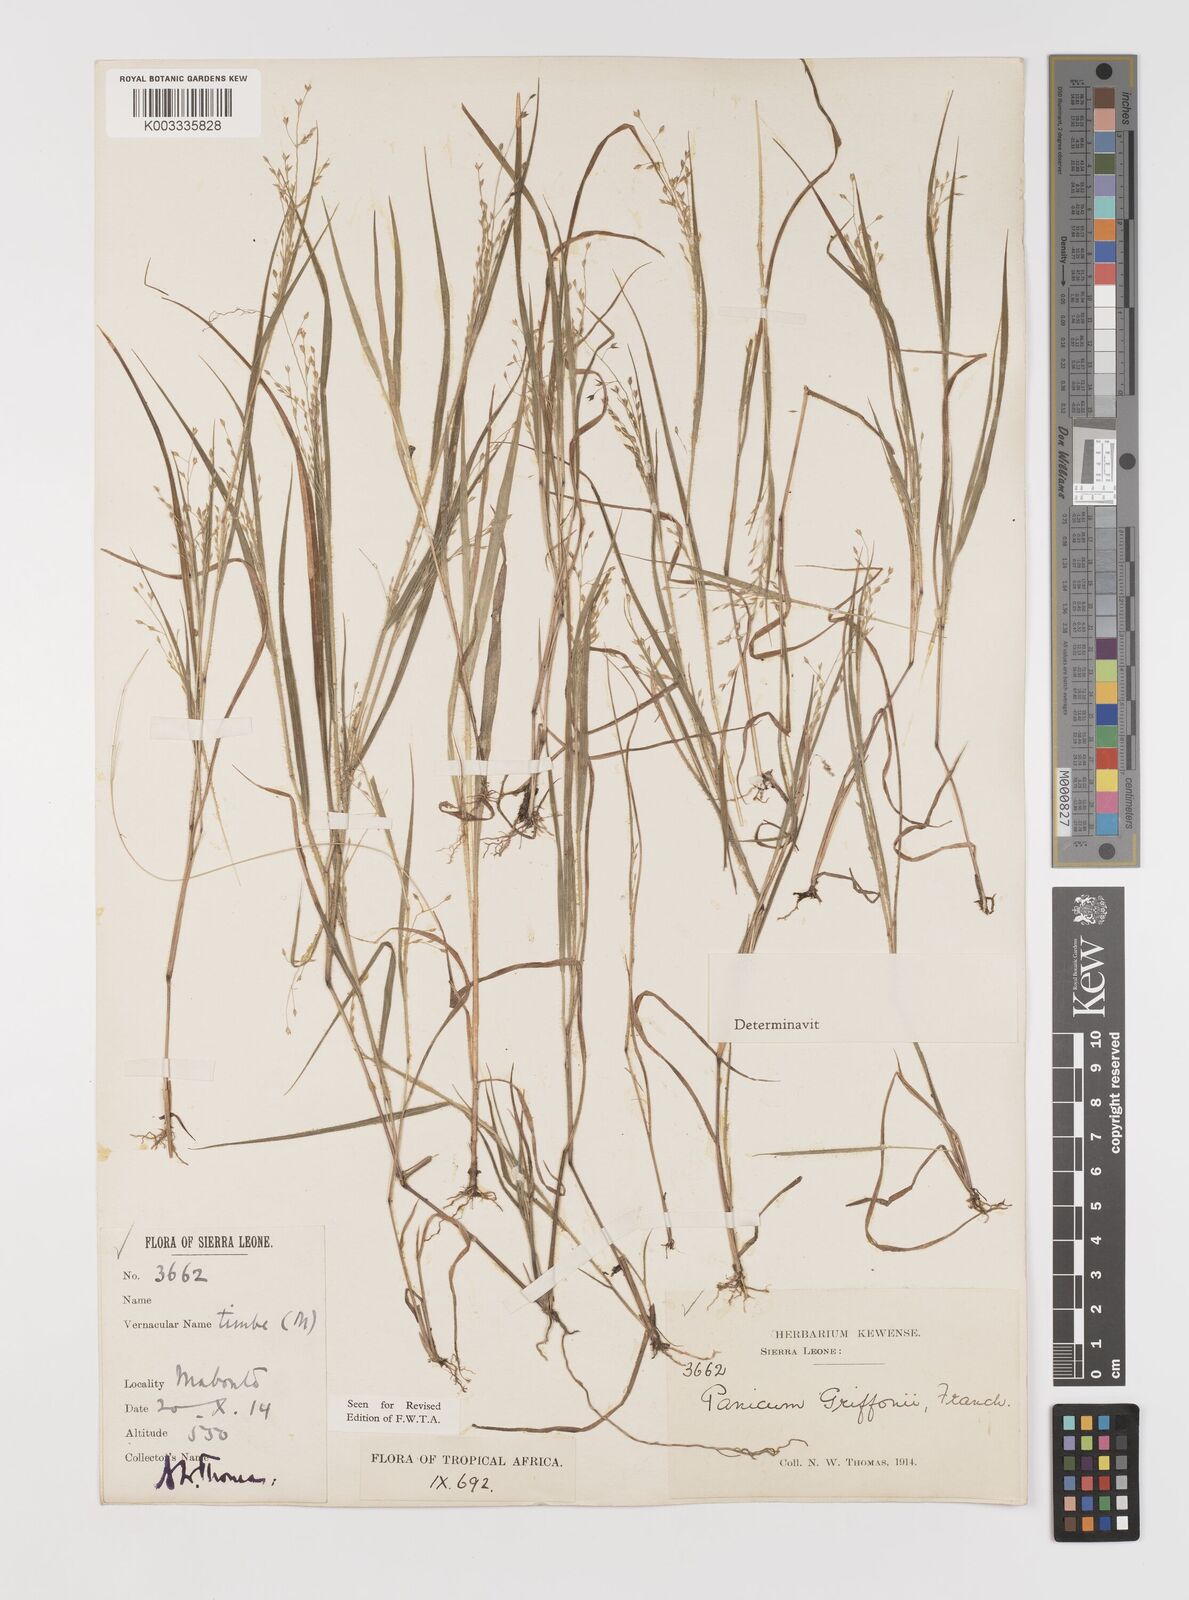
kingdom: Plantae
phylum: Tracheophyta
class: Liliopsida
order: Poales
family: Poaceae
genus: Panicum
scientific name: Panicum griffonii
